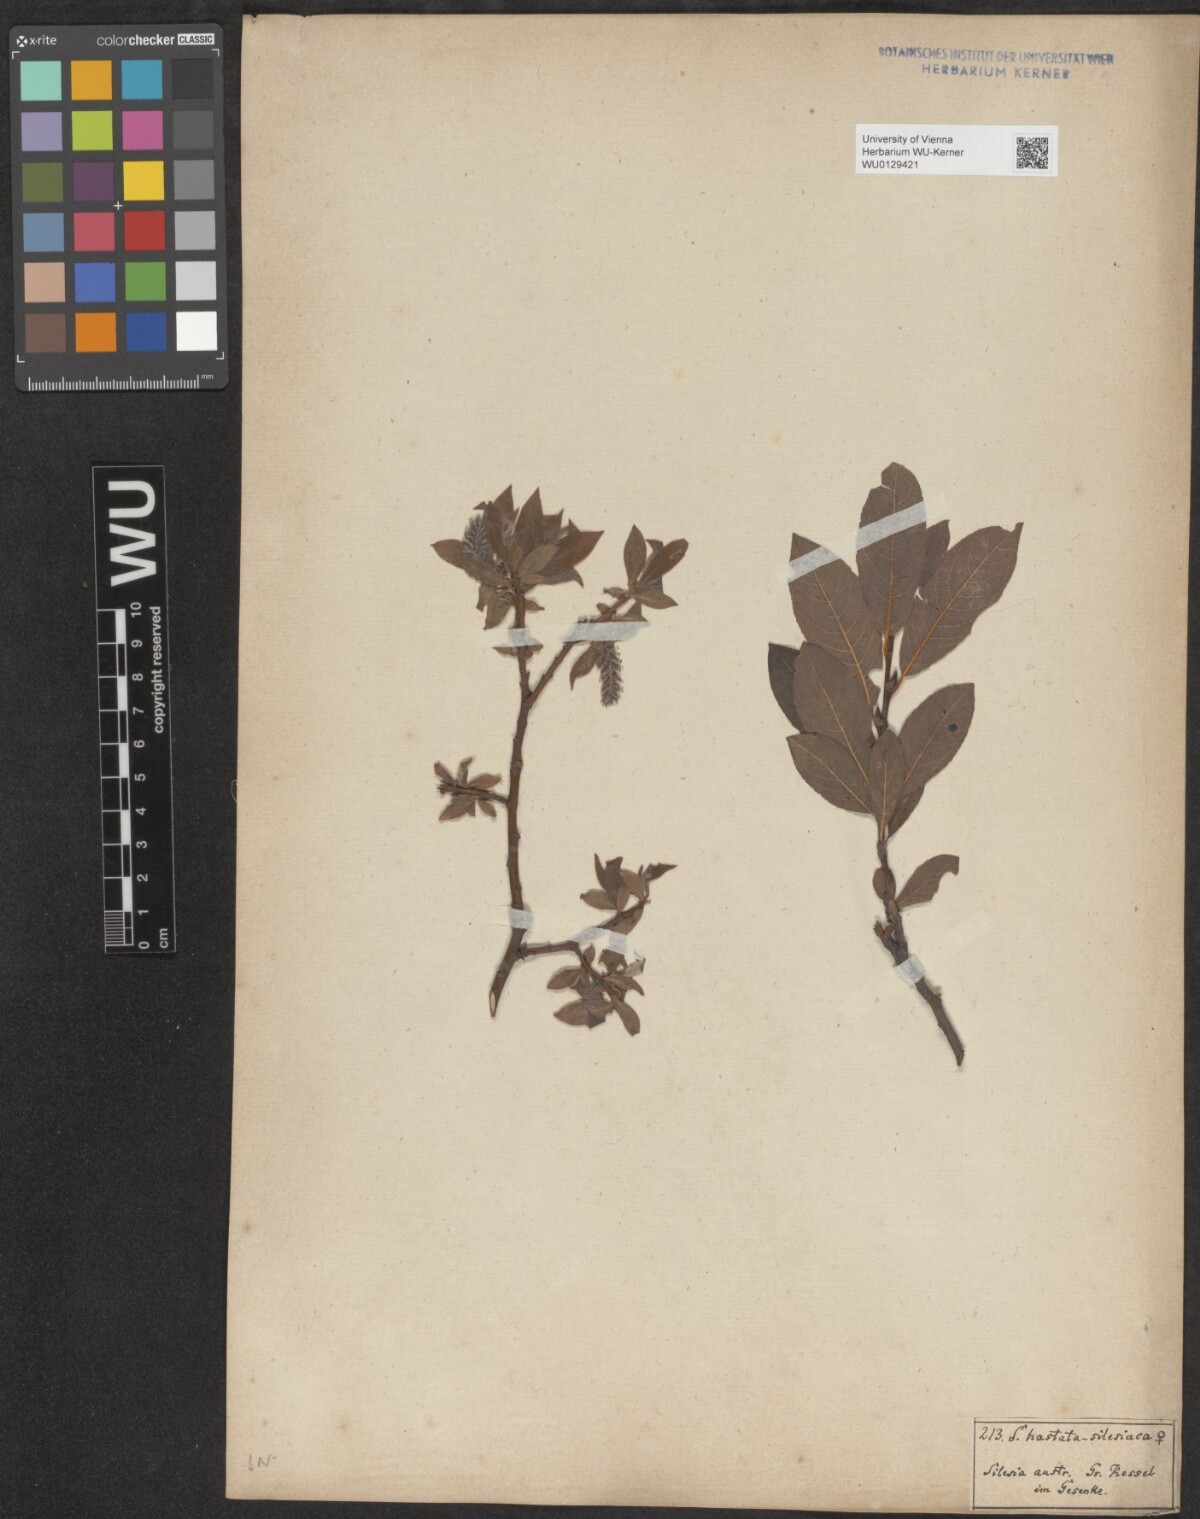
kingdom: Plantae
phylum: Tracheophyta
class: Magnoliopsida
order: Malpighiales
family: Salicaceae
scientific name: Salicaceae
